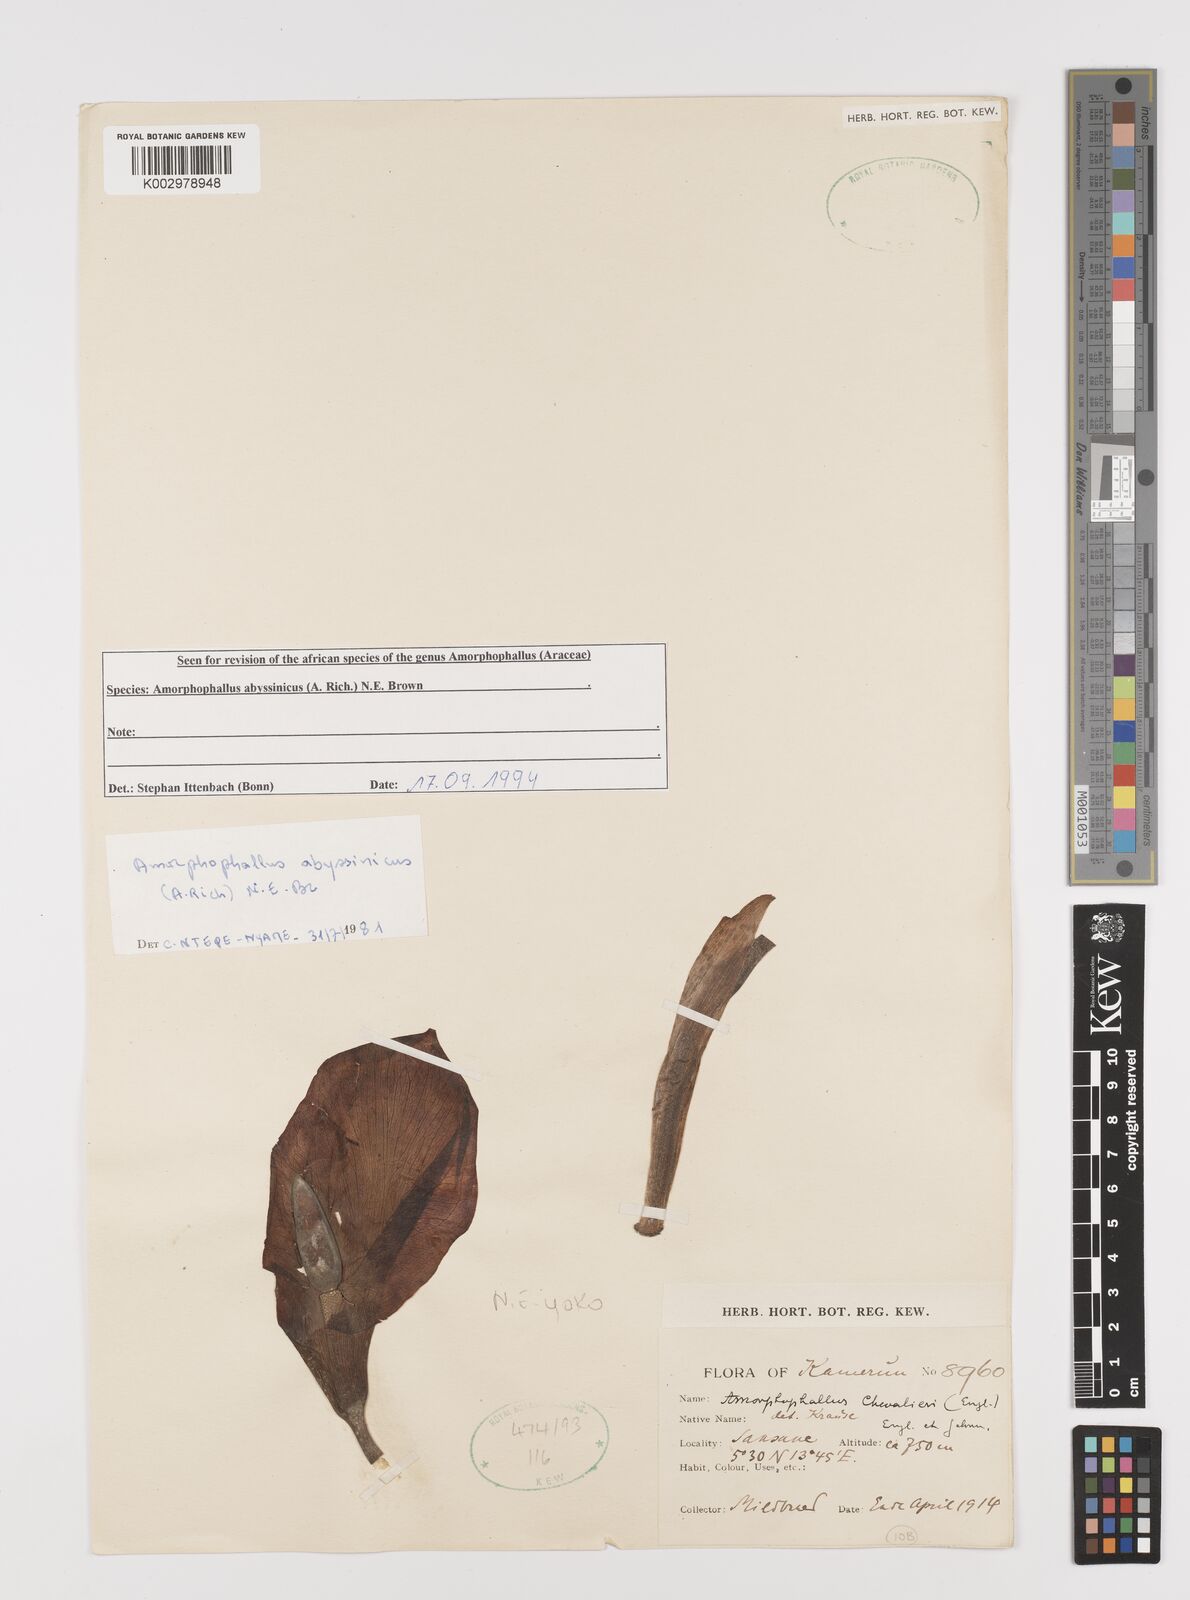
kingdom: Plantae
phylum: Tracheophyta
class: Liliopsida
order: Alismatales
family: Araceae
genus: Amorphophallus
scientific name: Amorphophallus abyssinicus
